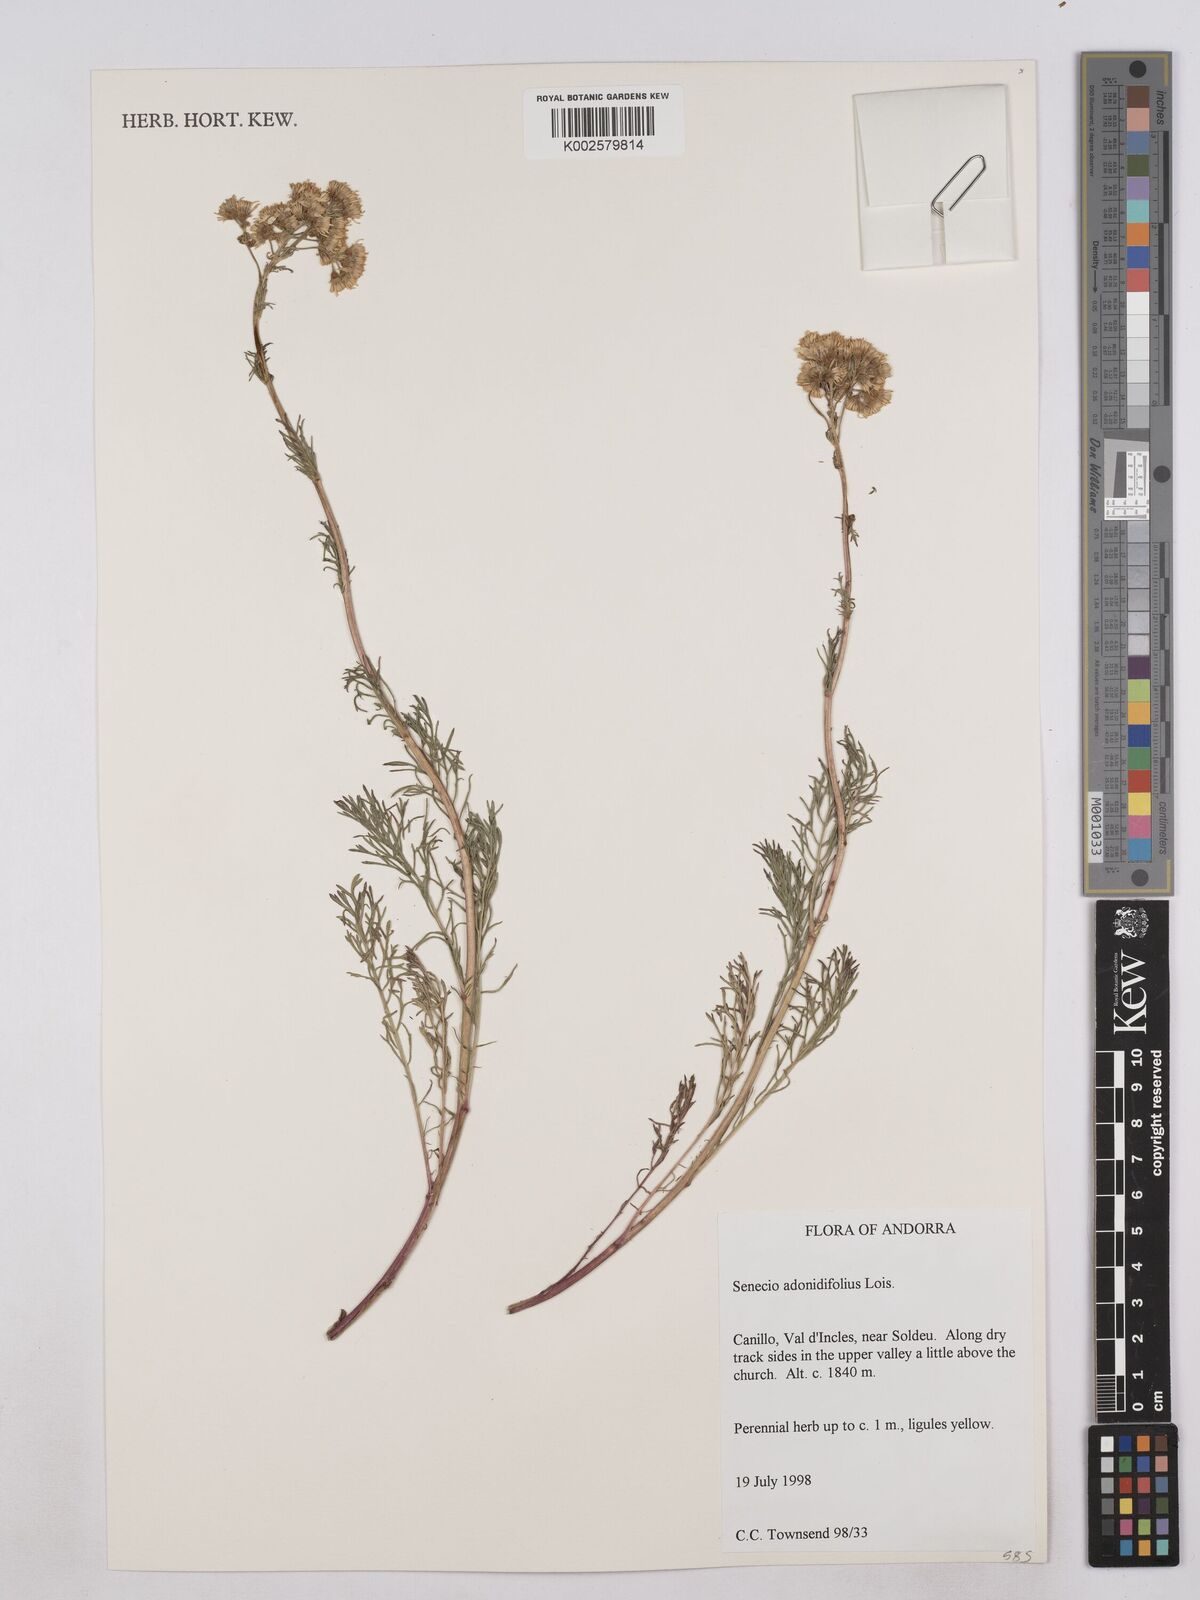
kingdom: Plantae
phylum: Tracheophyta
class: Magnoliopsida
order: Asterales
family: Asteraceae
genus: Jacobaea
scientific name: Jacobaea adonidifolia
